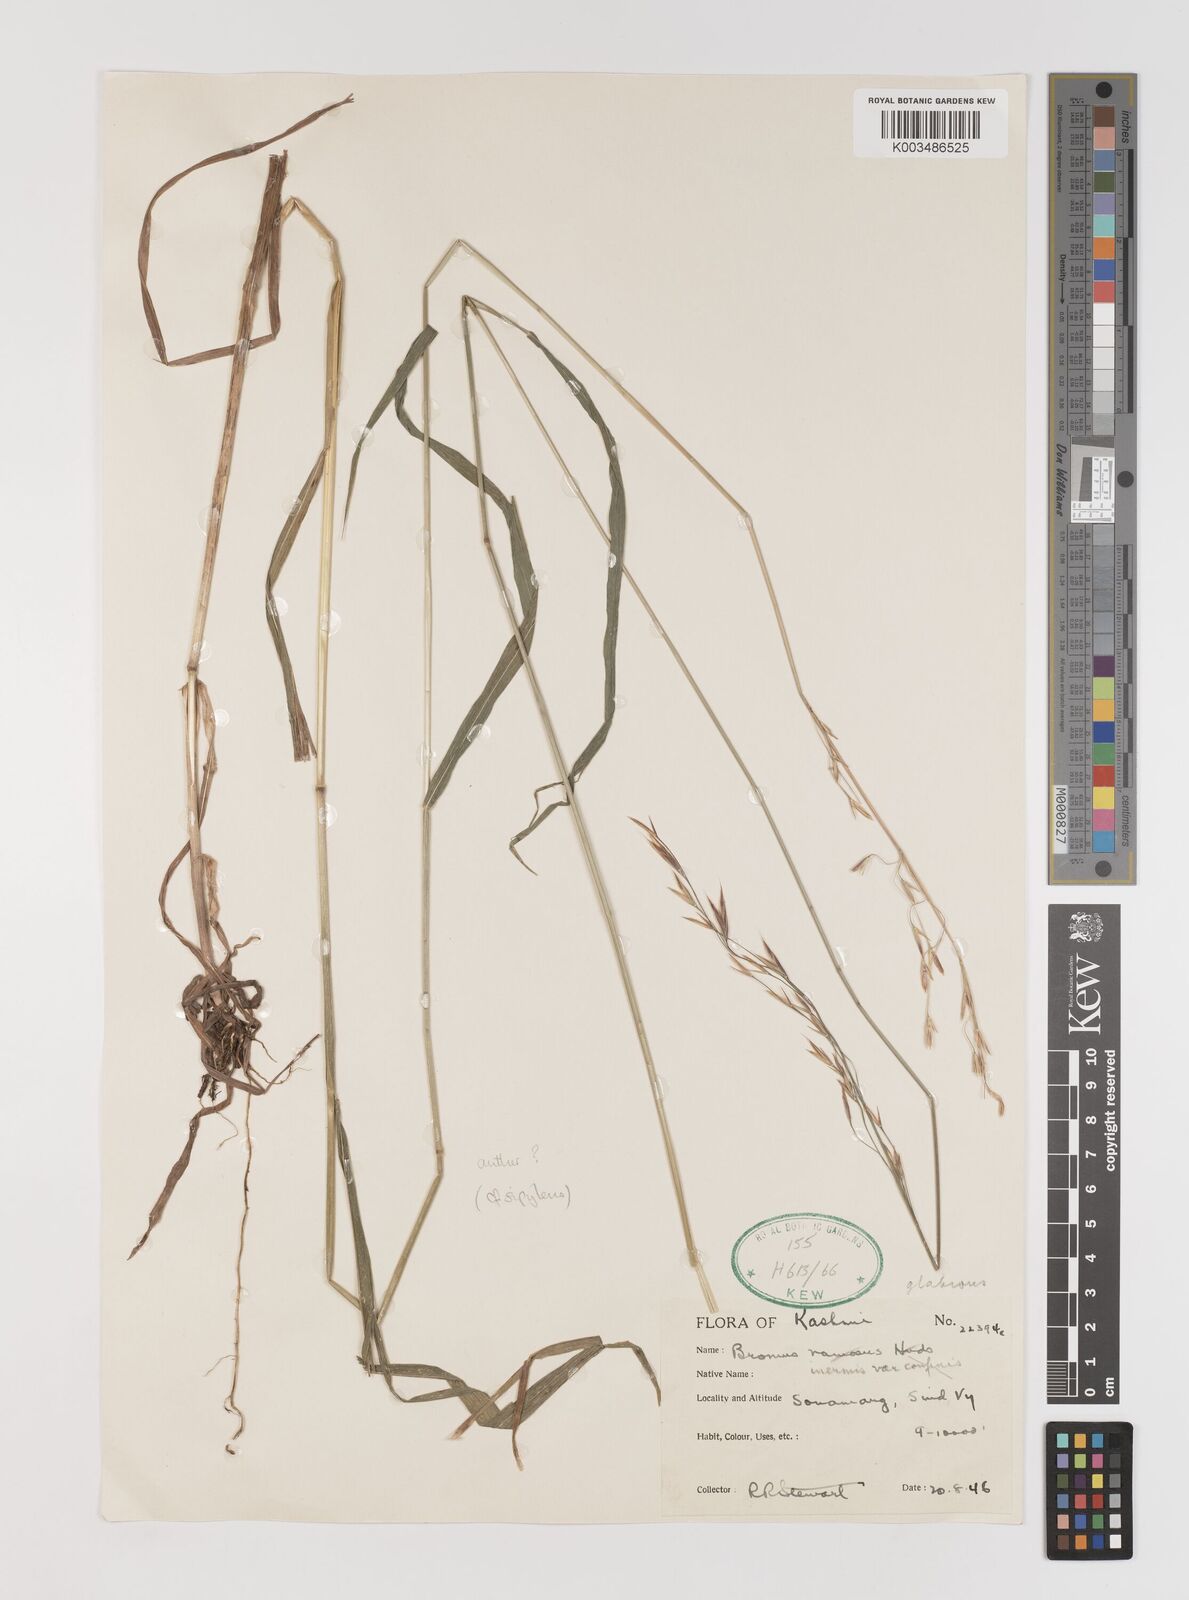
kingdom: Plantae
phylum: Tracheophyta
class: Liliopsida
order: Poales
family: Poaceae
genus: Bromus
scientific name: Bromus inermis
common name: Smooth brome
